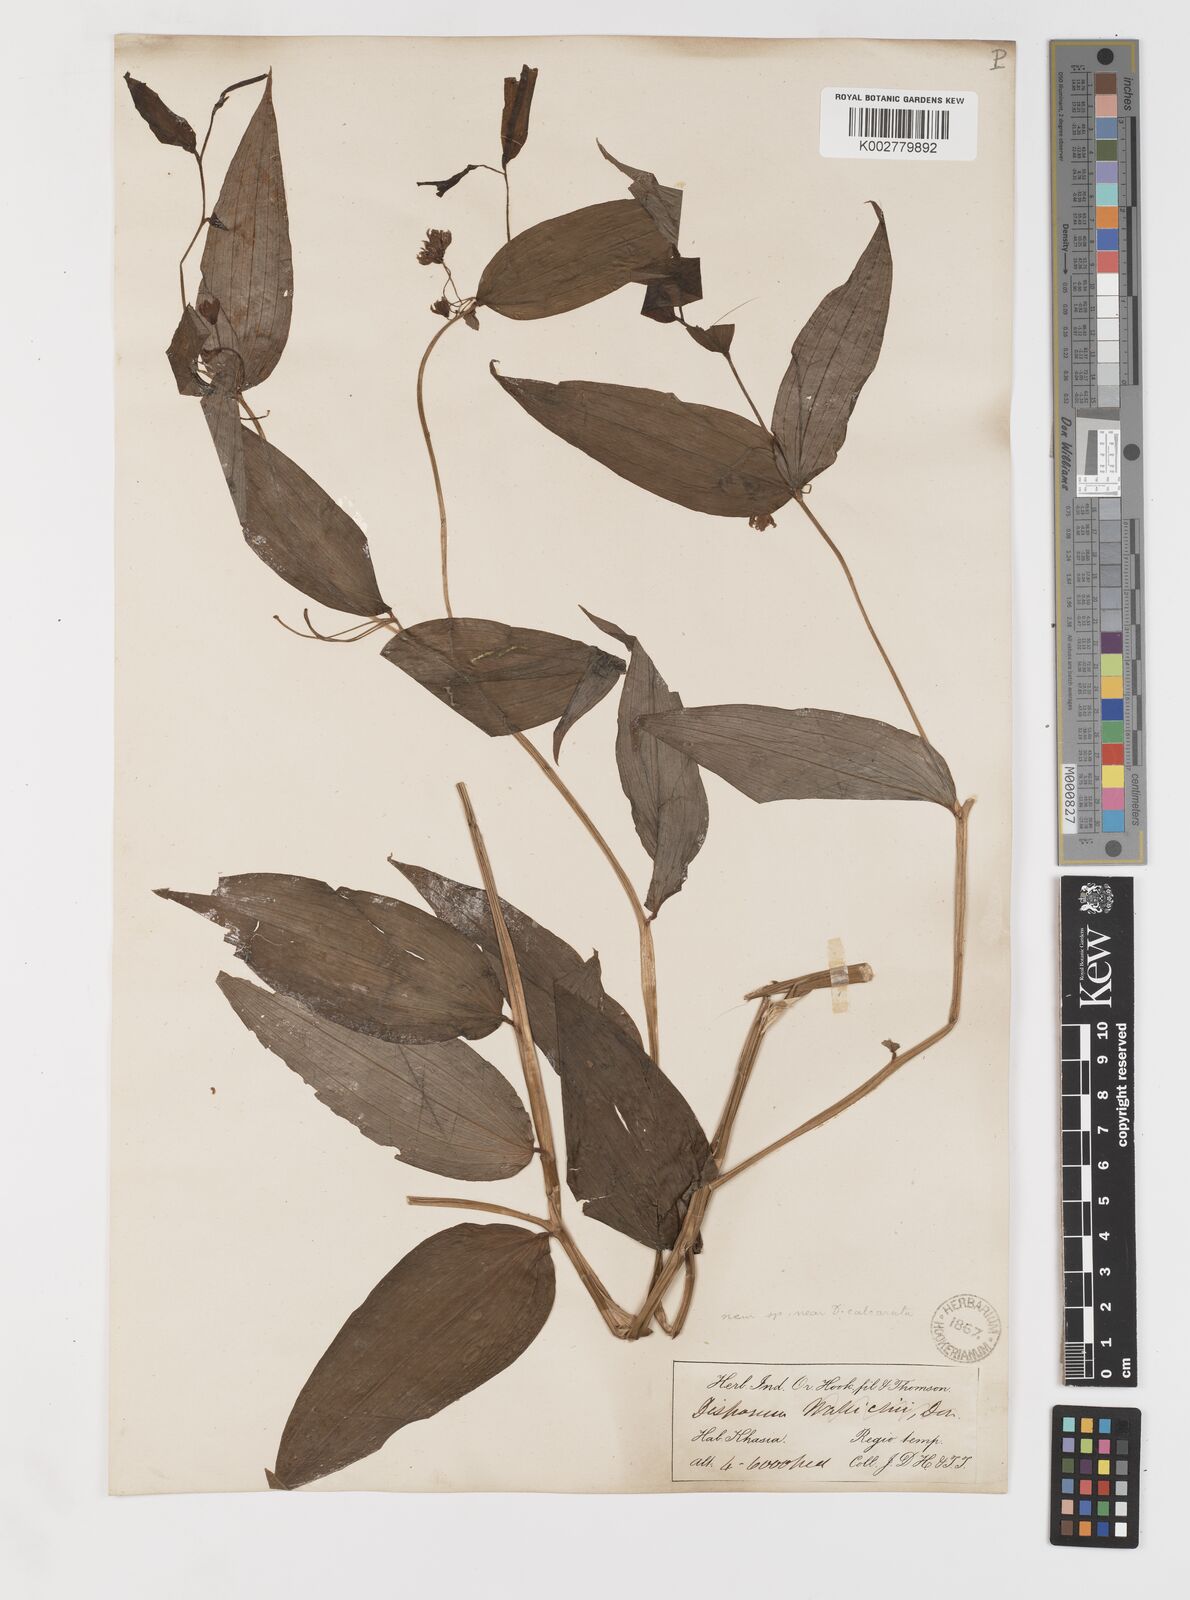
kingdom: Plantae
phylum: Tracheophyta
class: Liliopsida
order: Liliales
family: Colchicaceae
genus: Disporum
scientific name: Disporum
